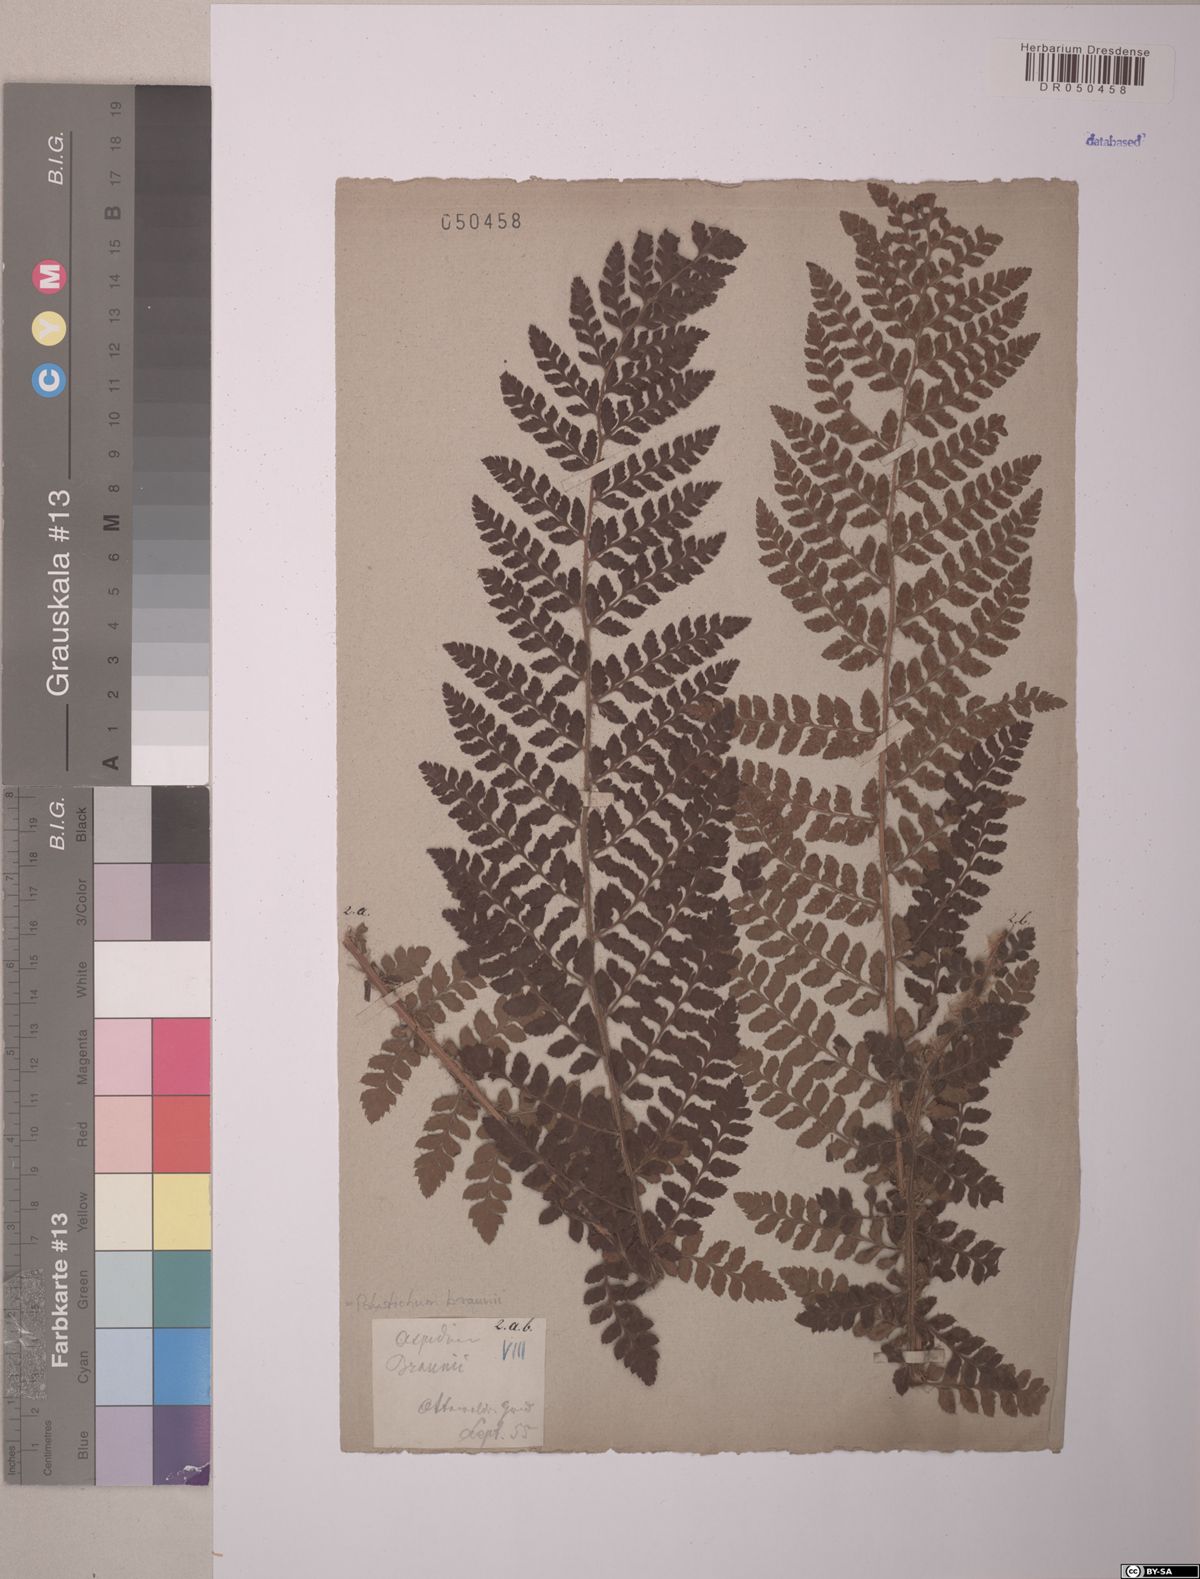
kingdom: Plantae
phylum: Tracheophyta
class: Polypodiopsida
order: Polypodiales
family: Dryopteridaceae
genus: Polystichum
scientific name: Polystichum braunii
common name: Braun's holly fern
